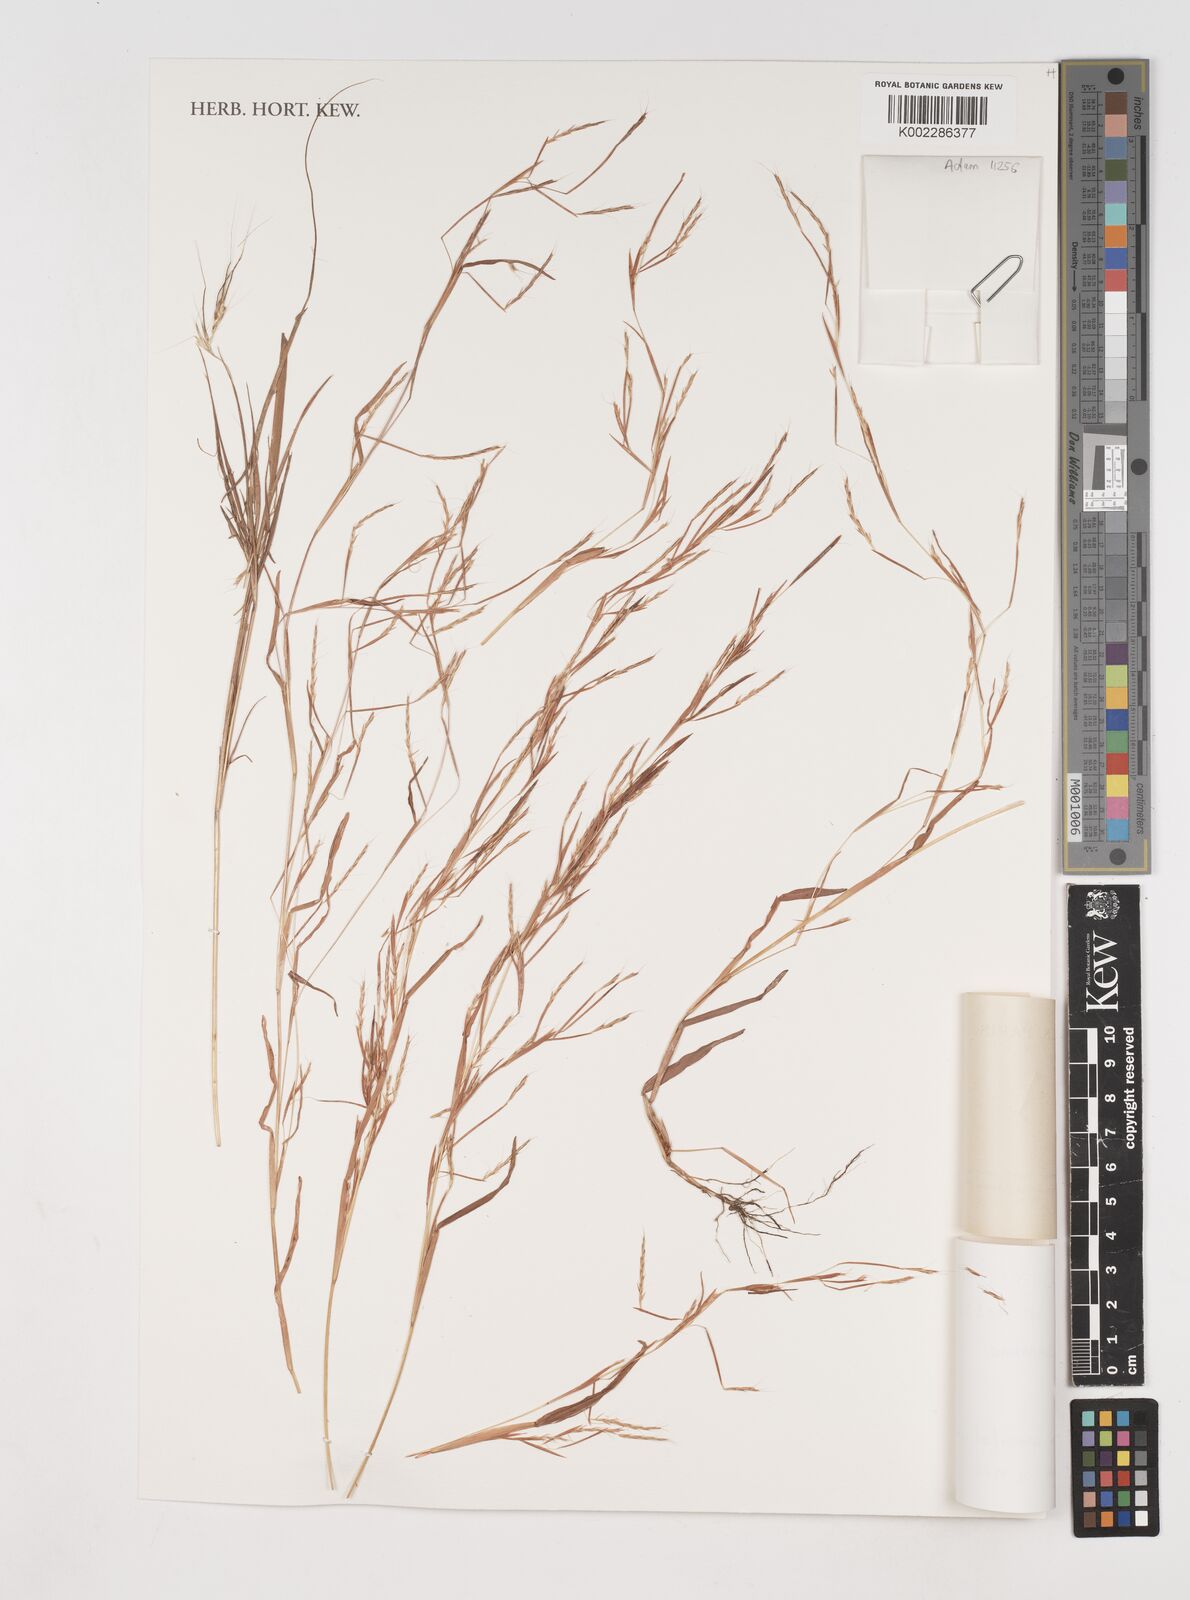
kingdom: Plantae
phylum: Tracheophyta
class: Liliopsida
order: Poales
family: Poaceae
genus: Schizachyrium
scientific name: Schizachyrium brevifolium
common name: Serillo dulce
